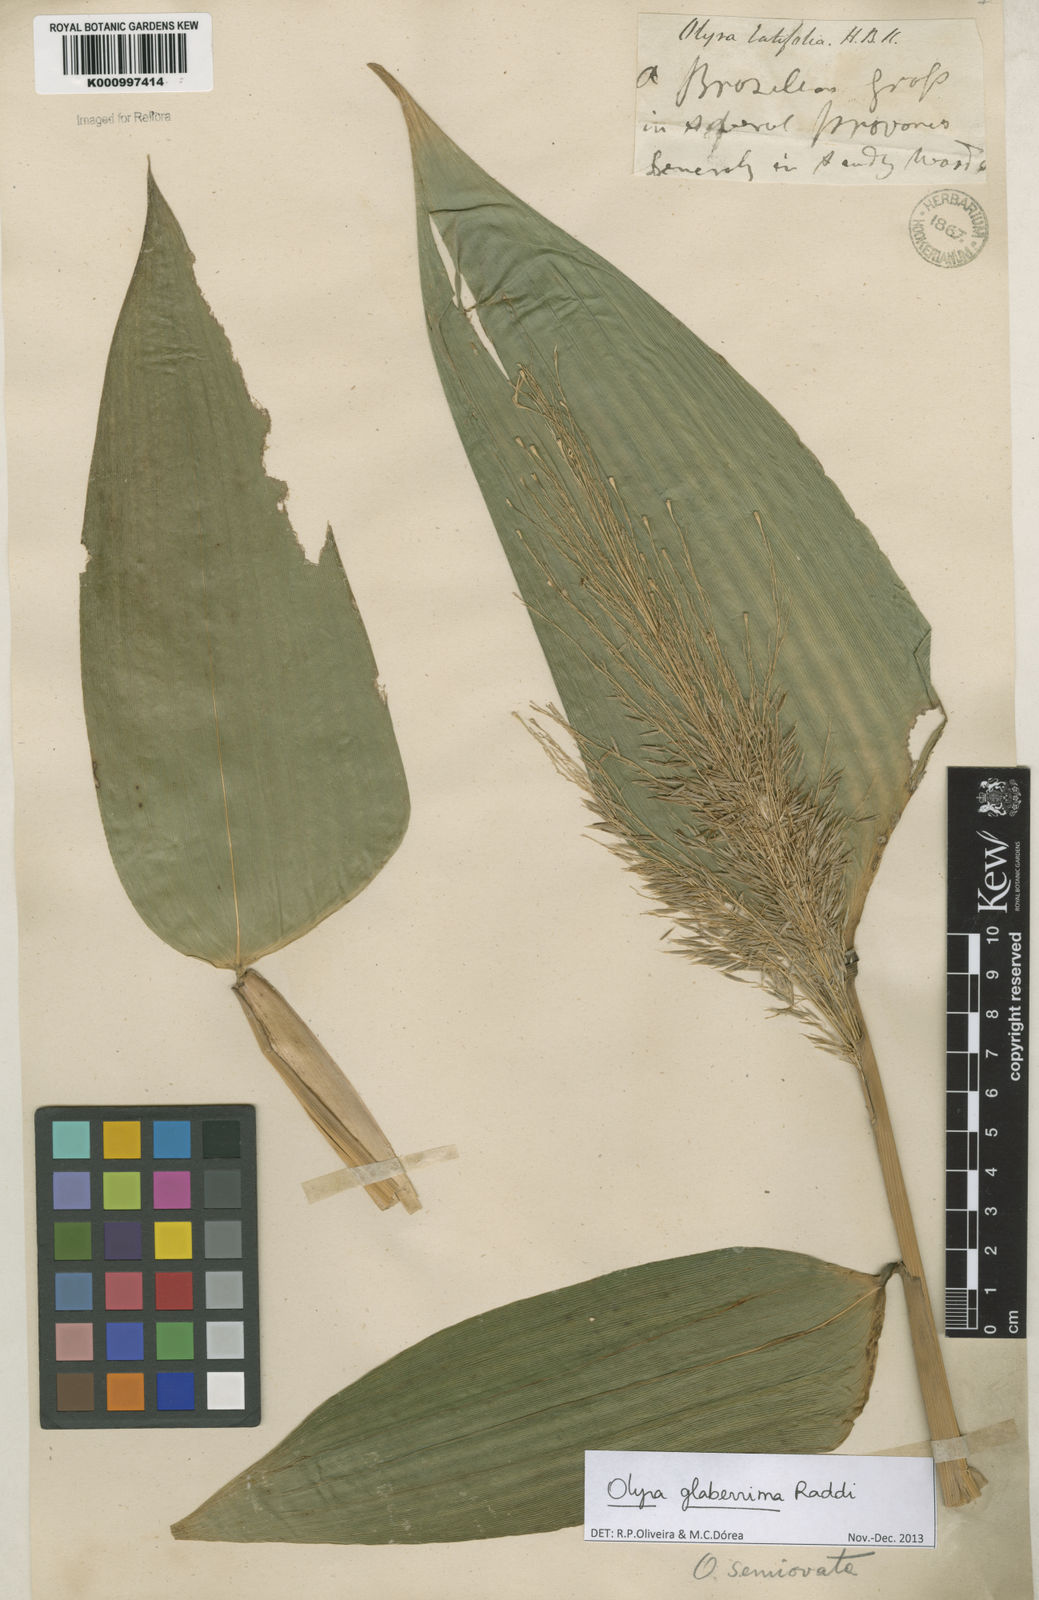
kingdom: Plantae
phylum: Tracheophyta
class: Liliopsida
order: Poales
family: Poaceae
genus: Olyra
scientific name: Olyra glaberrima
